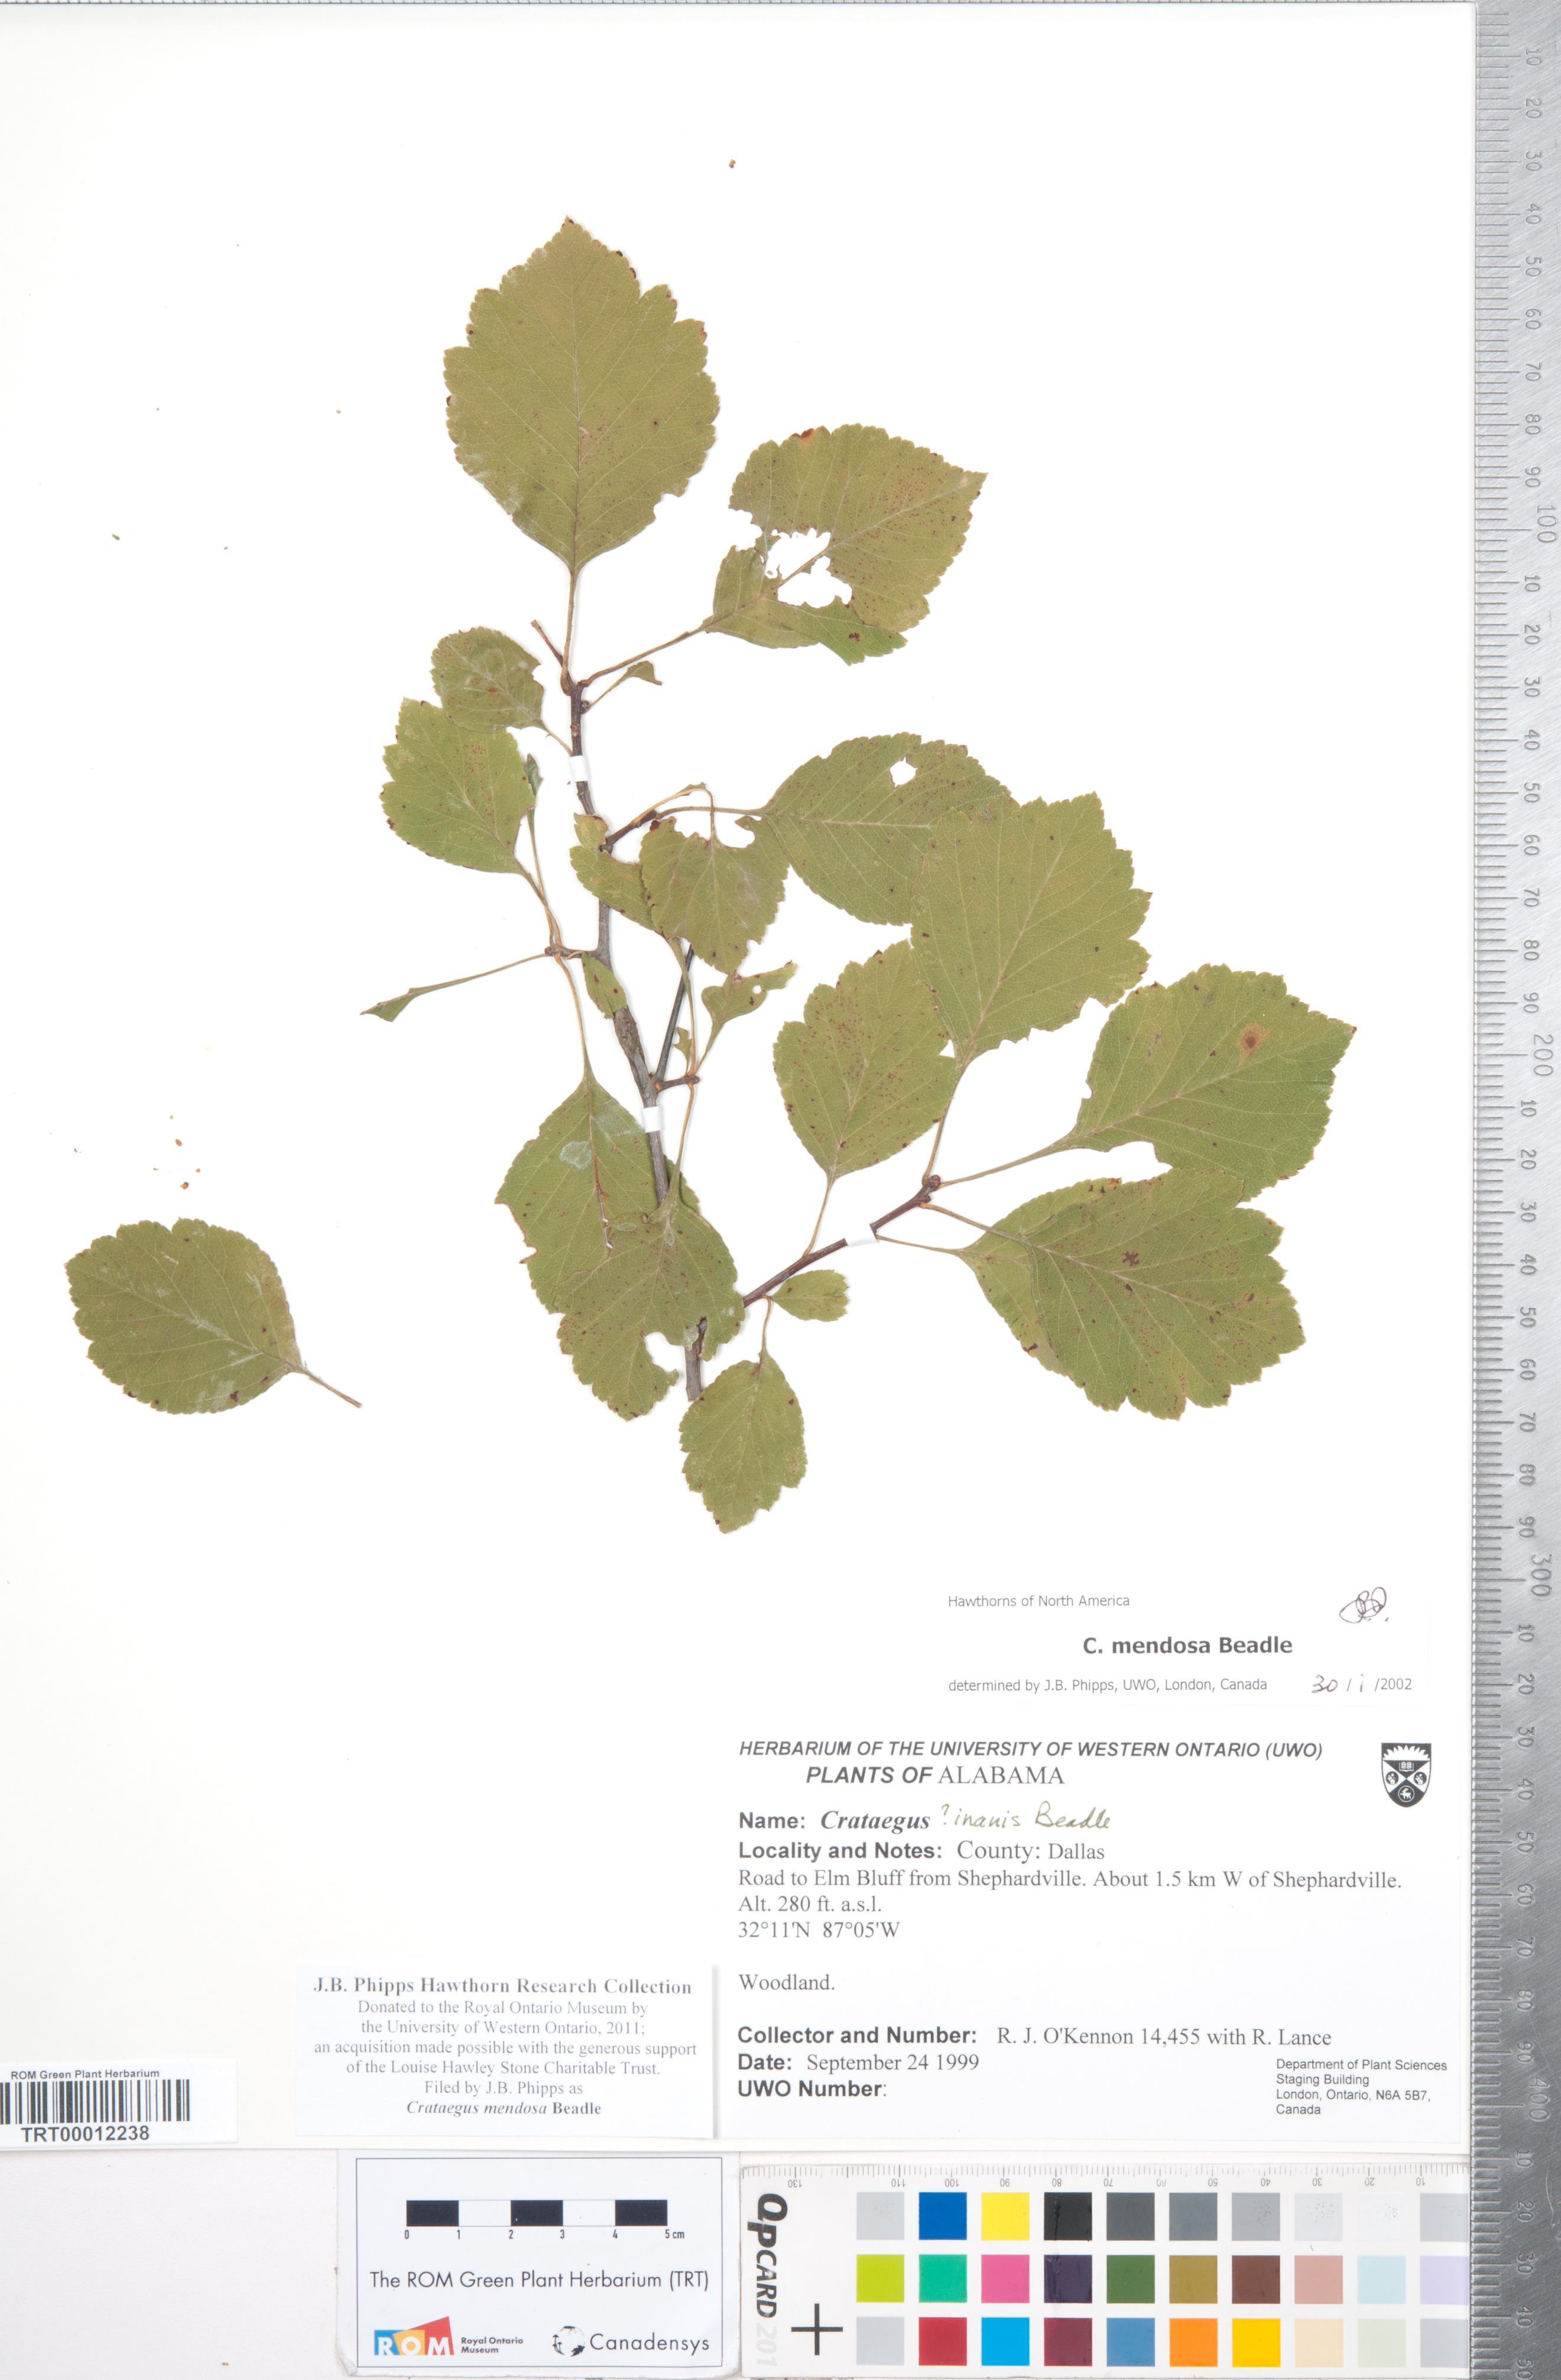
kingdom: Plantae
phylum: Tracheophyta
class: Magnoliopsida
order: Rosales
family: Rosaceae
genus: Crataegus
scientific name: Crataegus pulcherrima
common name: Beautiful hawthorn
